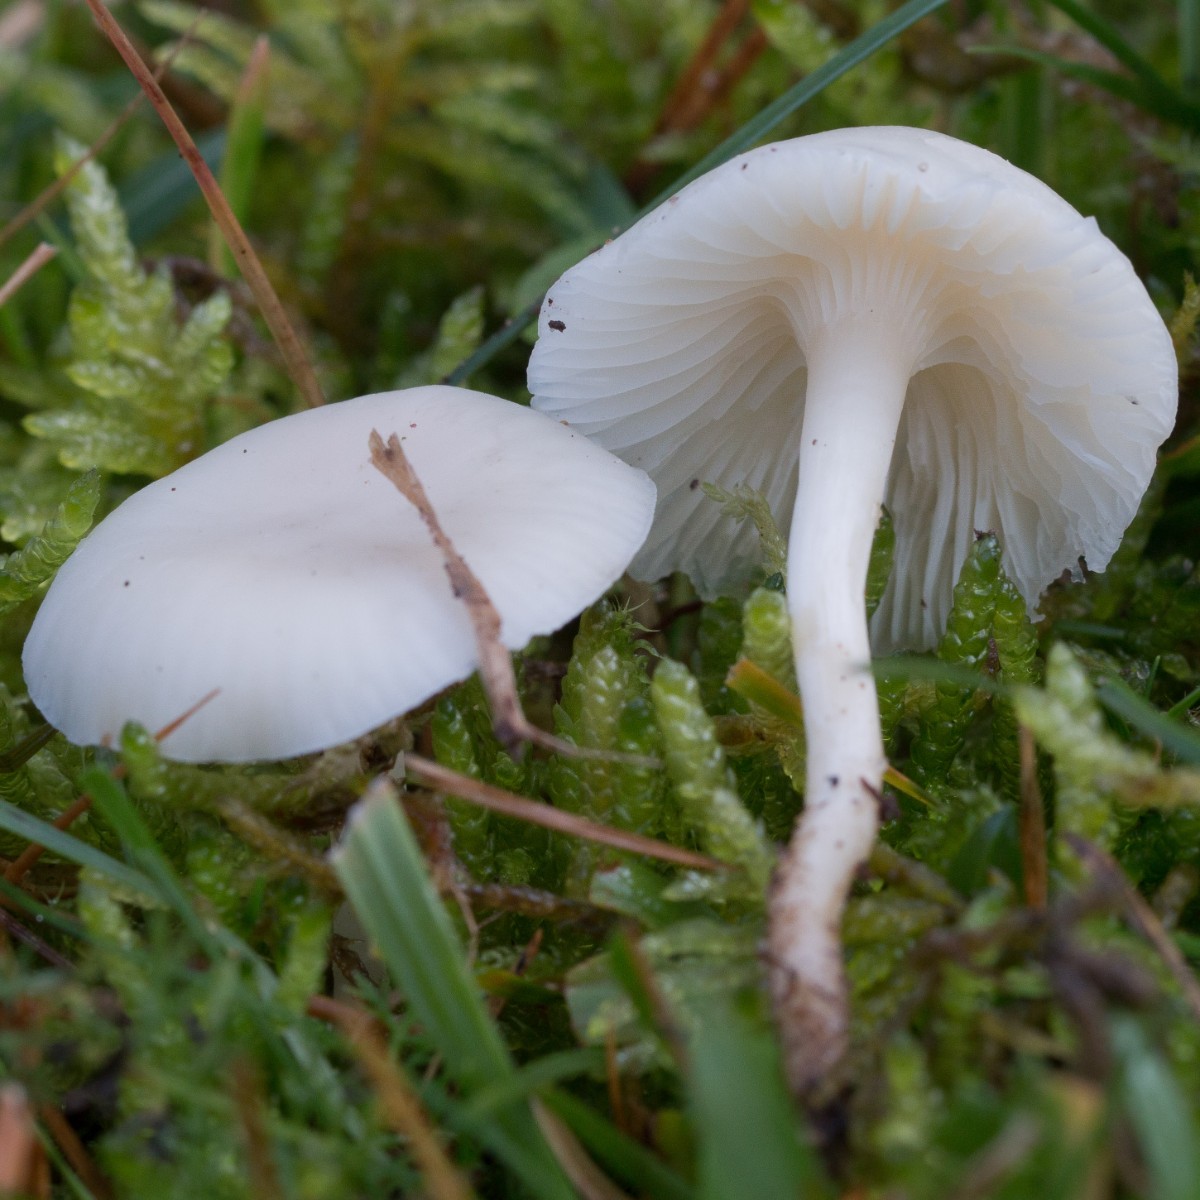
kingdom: Fungi
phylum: Basidiomycota
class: Agaricomycetes
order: Agaricales
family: Hygrophoraceae
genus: Cuphophyllus
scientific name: Cuphophyllus virgineus
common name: snehvid vokshat
